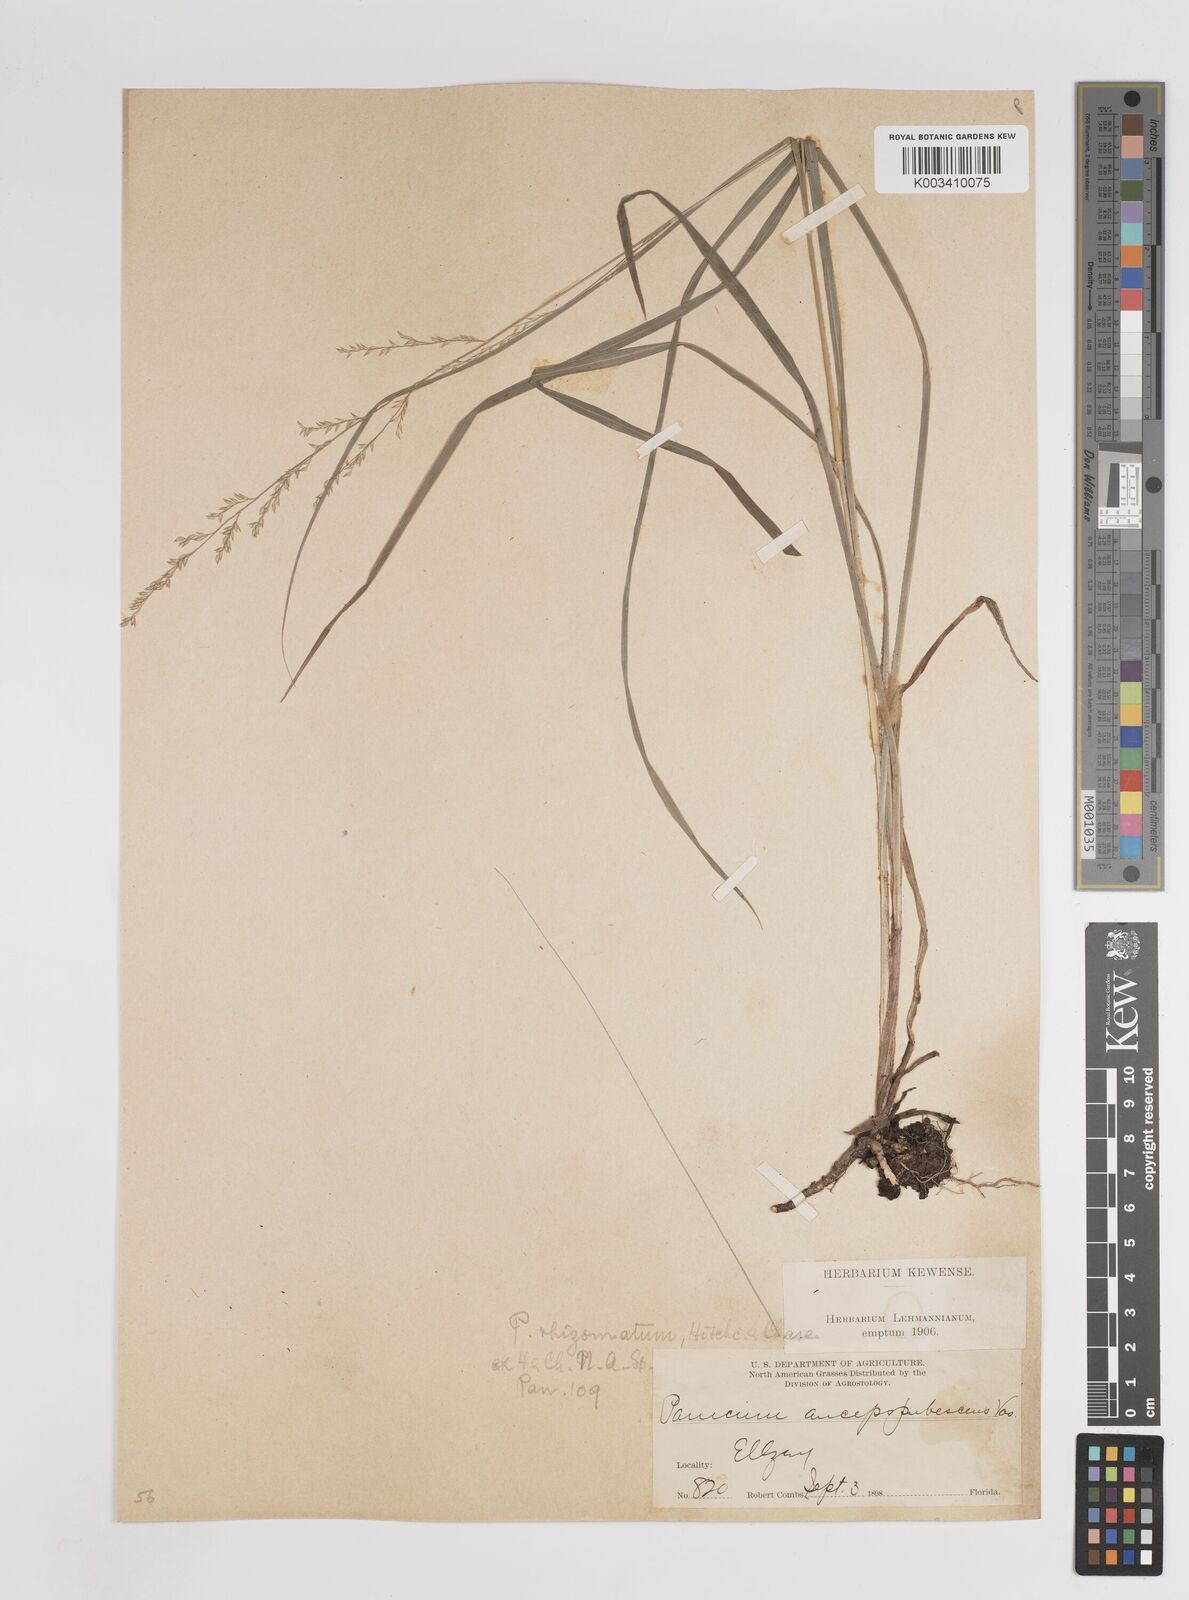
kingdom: Plantae
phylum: Tracheophyta
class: Liliopsida
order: Poales
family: Poaceae
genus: Coleataenia
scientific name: Coleataenia anceps
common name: Beaked panic grass
